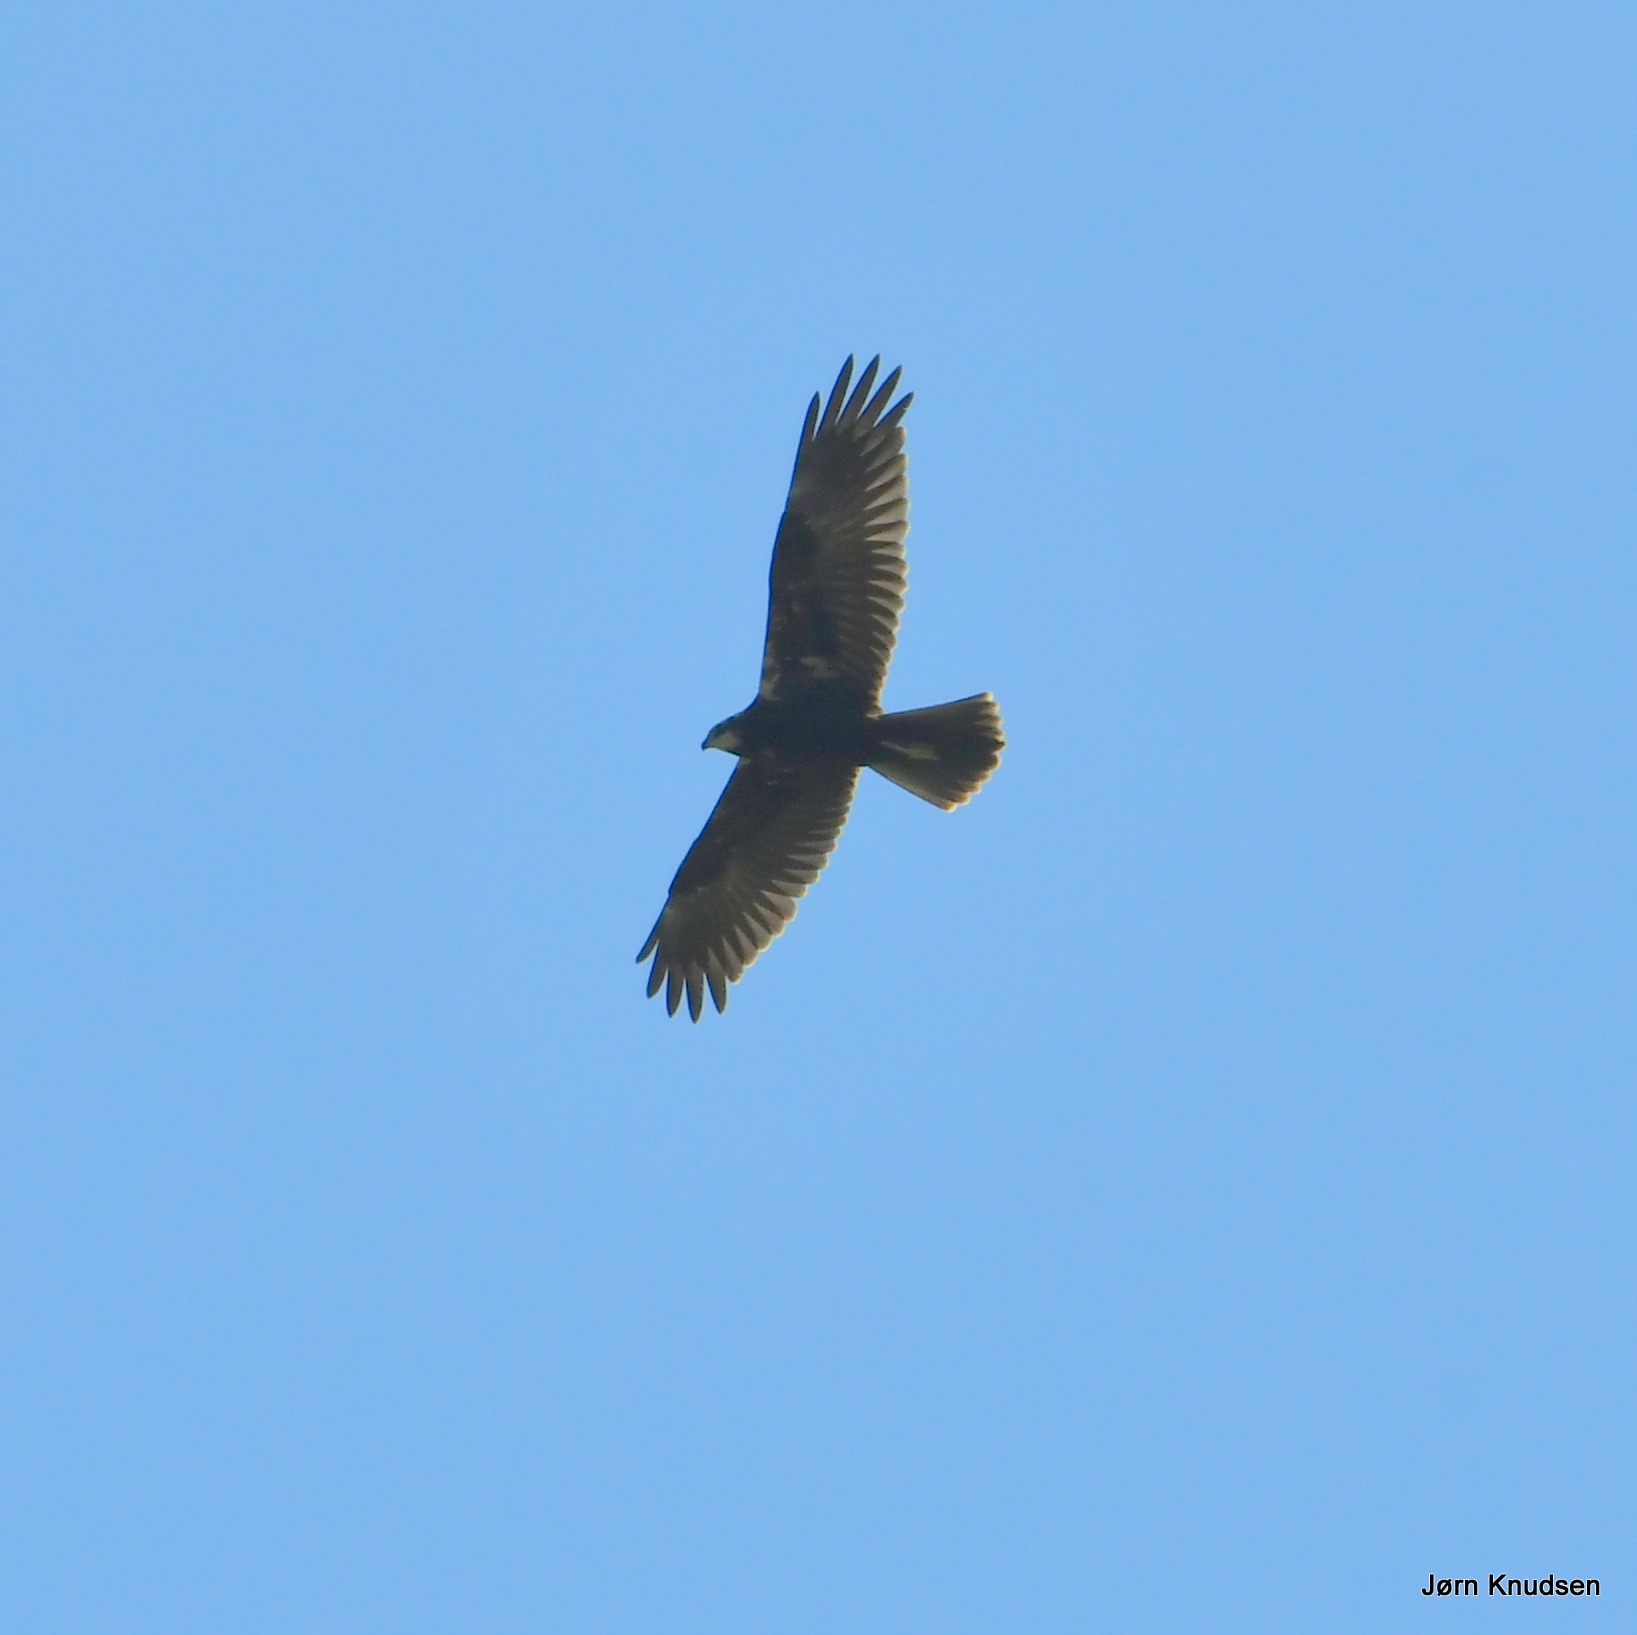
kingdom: Animalia
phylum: Chordata
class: Aves
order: Accipitriformes
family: Accipitridae
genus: Circus
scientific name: Circus aeruginosus
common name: Rørhøg
